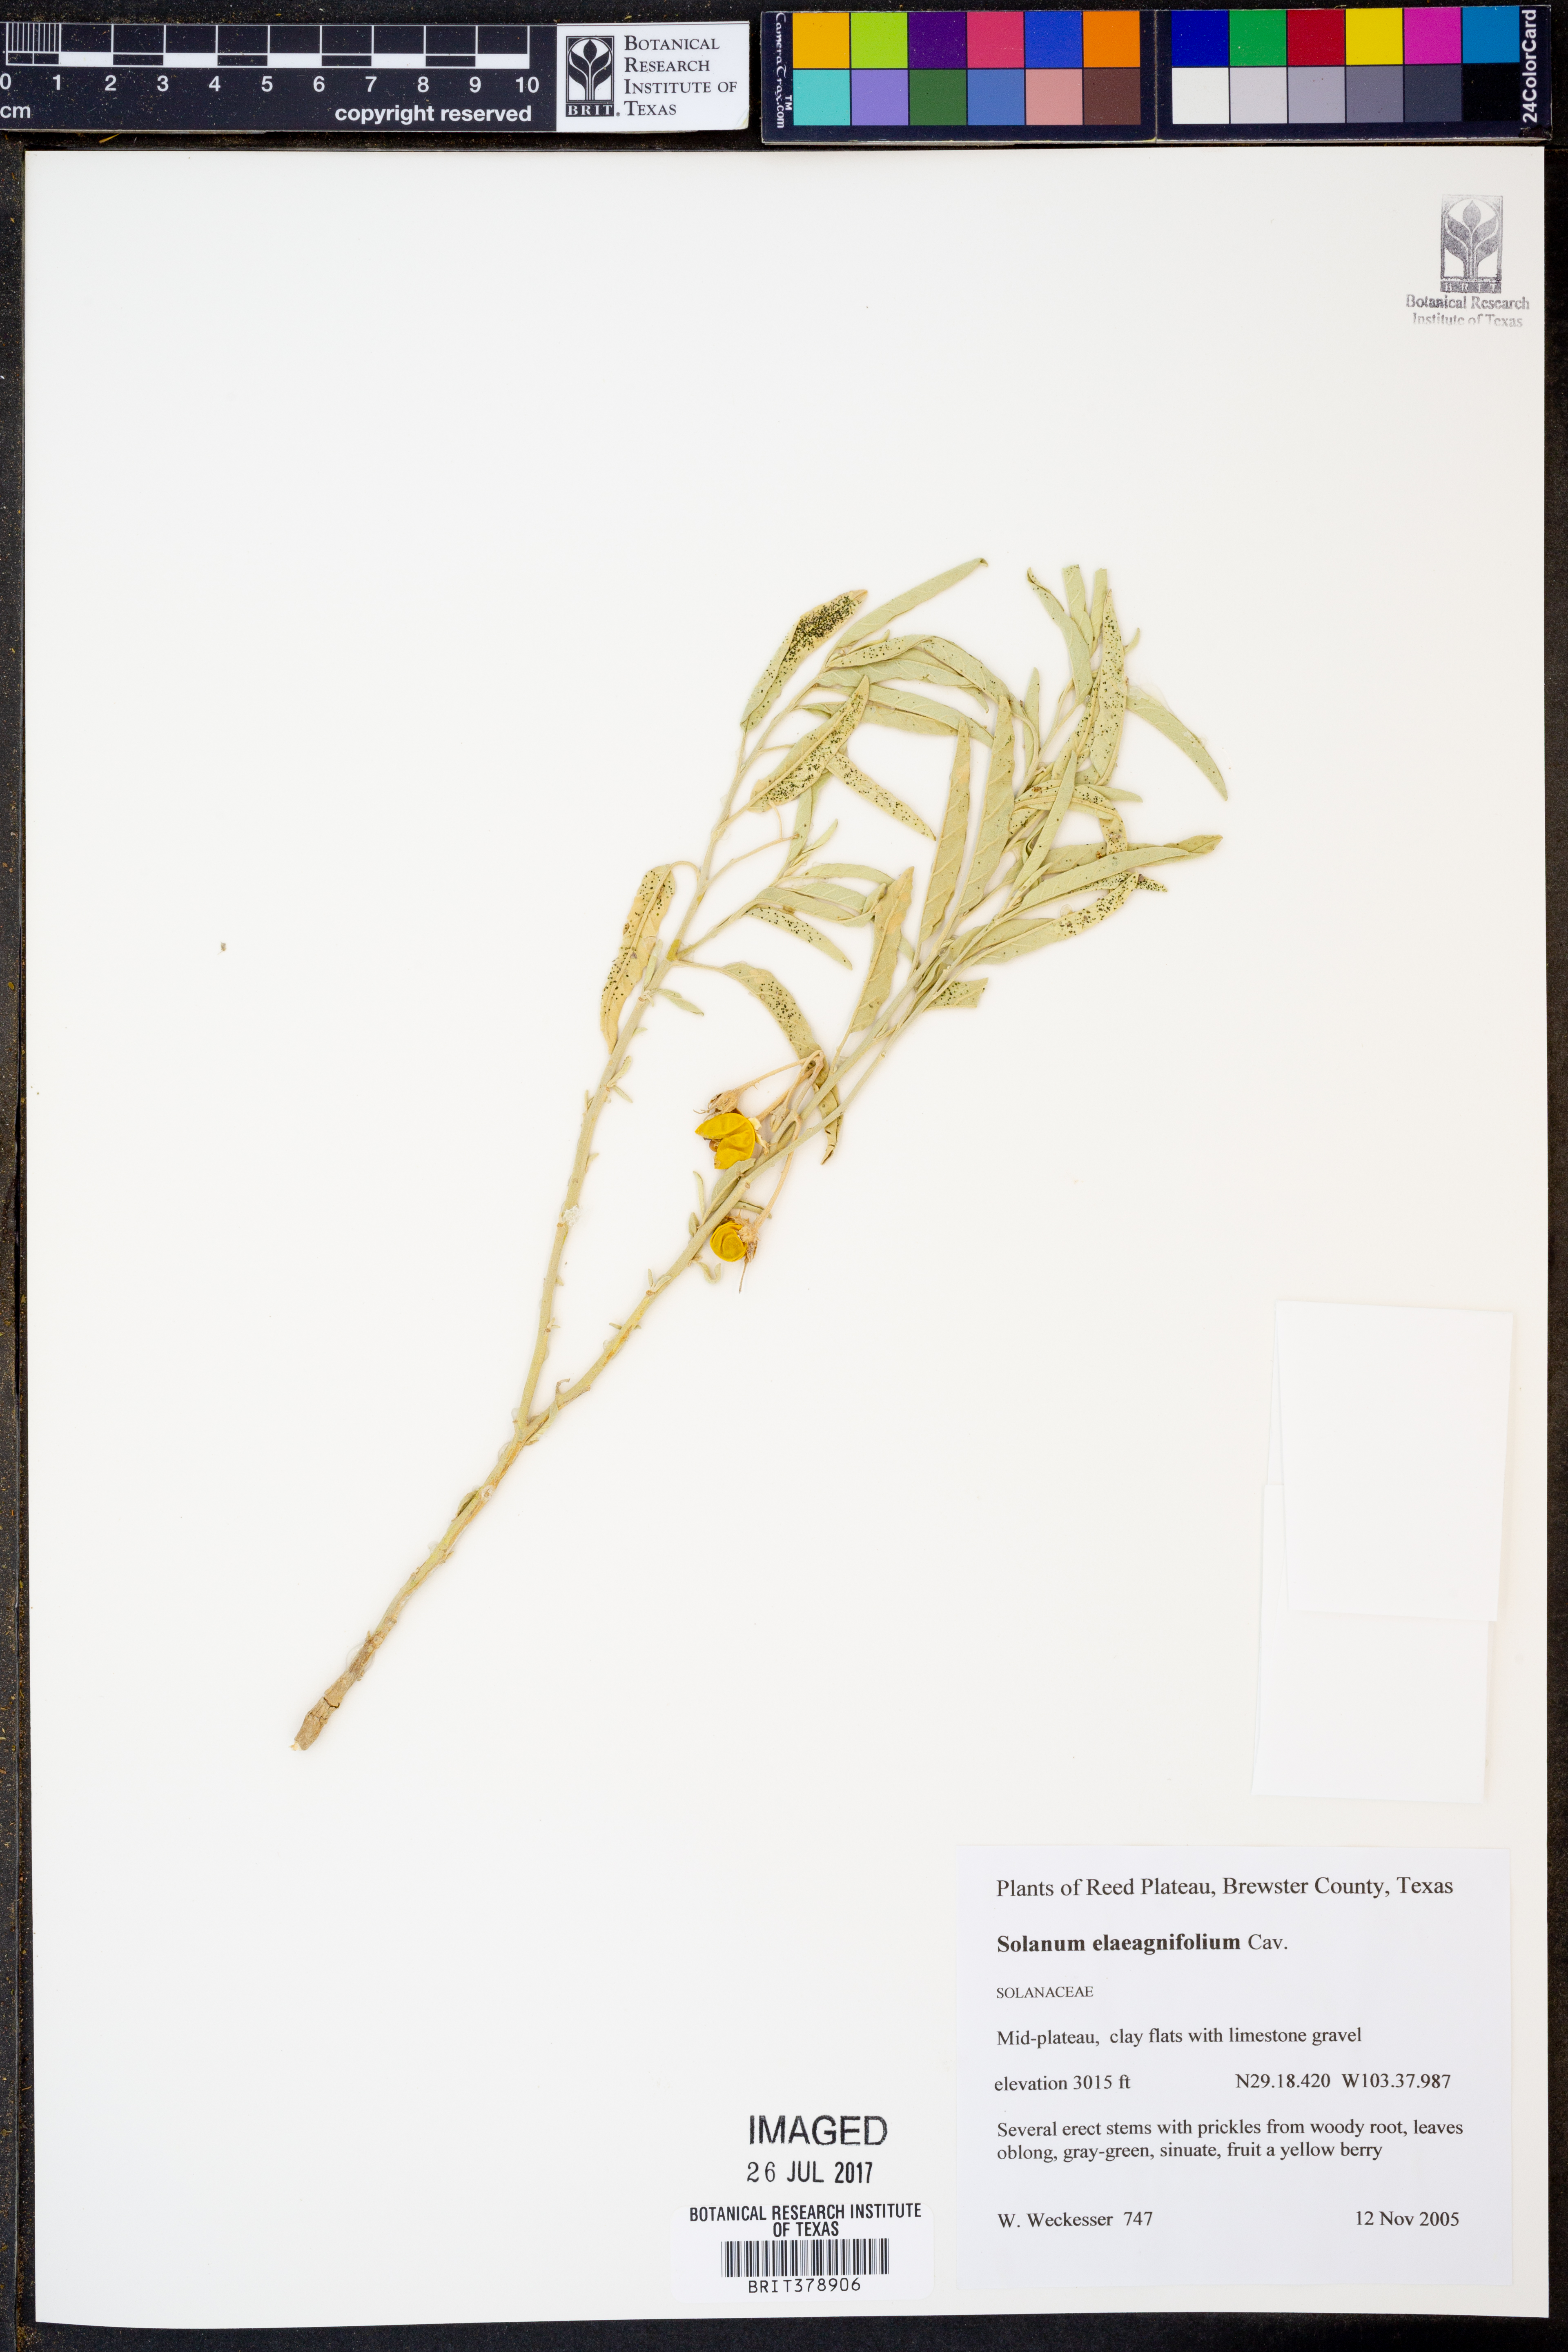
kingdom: Plantae
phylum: Tracheophyta
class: Magnoliopsida
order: Solanales
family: Solanaceae
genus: Solanum
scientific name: Solanum elaeagnifolium
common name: Silverleaf nightshade
